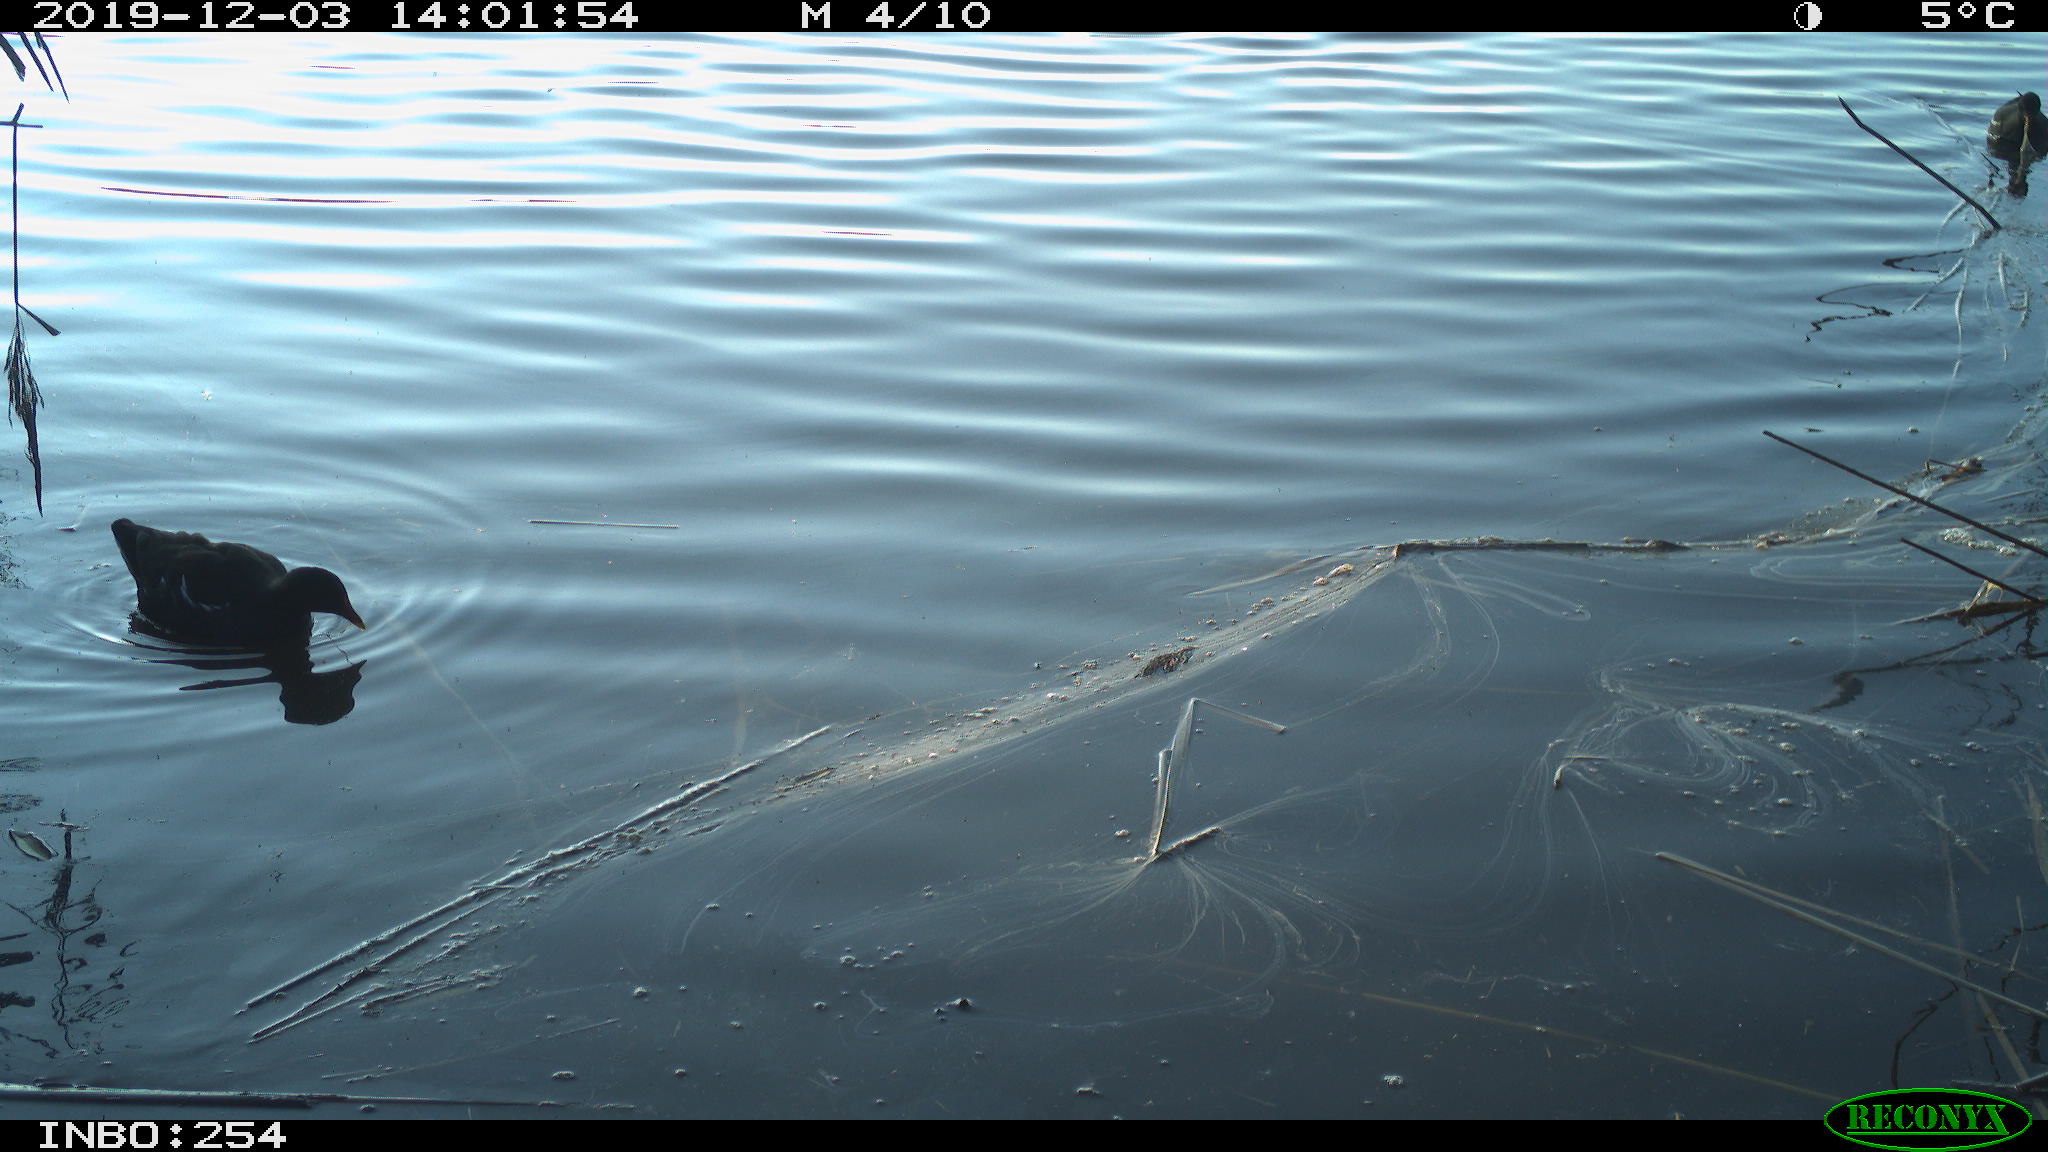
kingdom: Animalia
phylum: Chordata
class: Aves
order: Gruiformes
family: Rallidae
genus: Gallinula
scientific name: Gallinula chloropus
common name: Common moorhen
